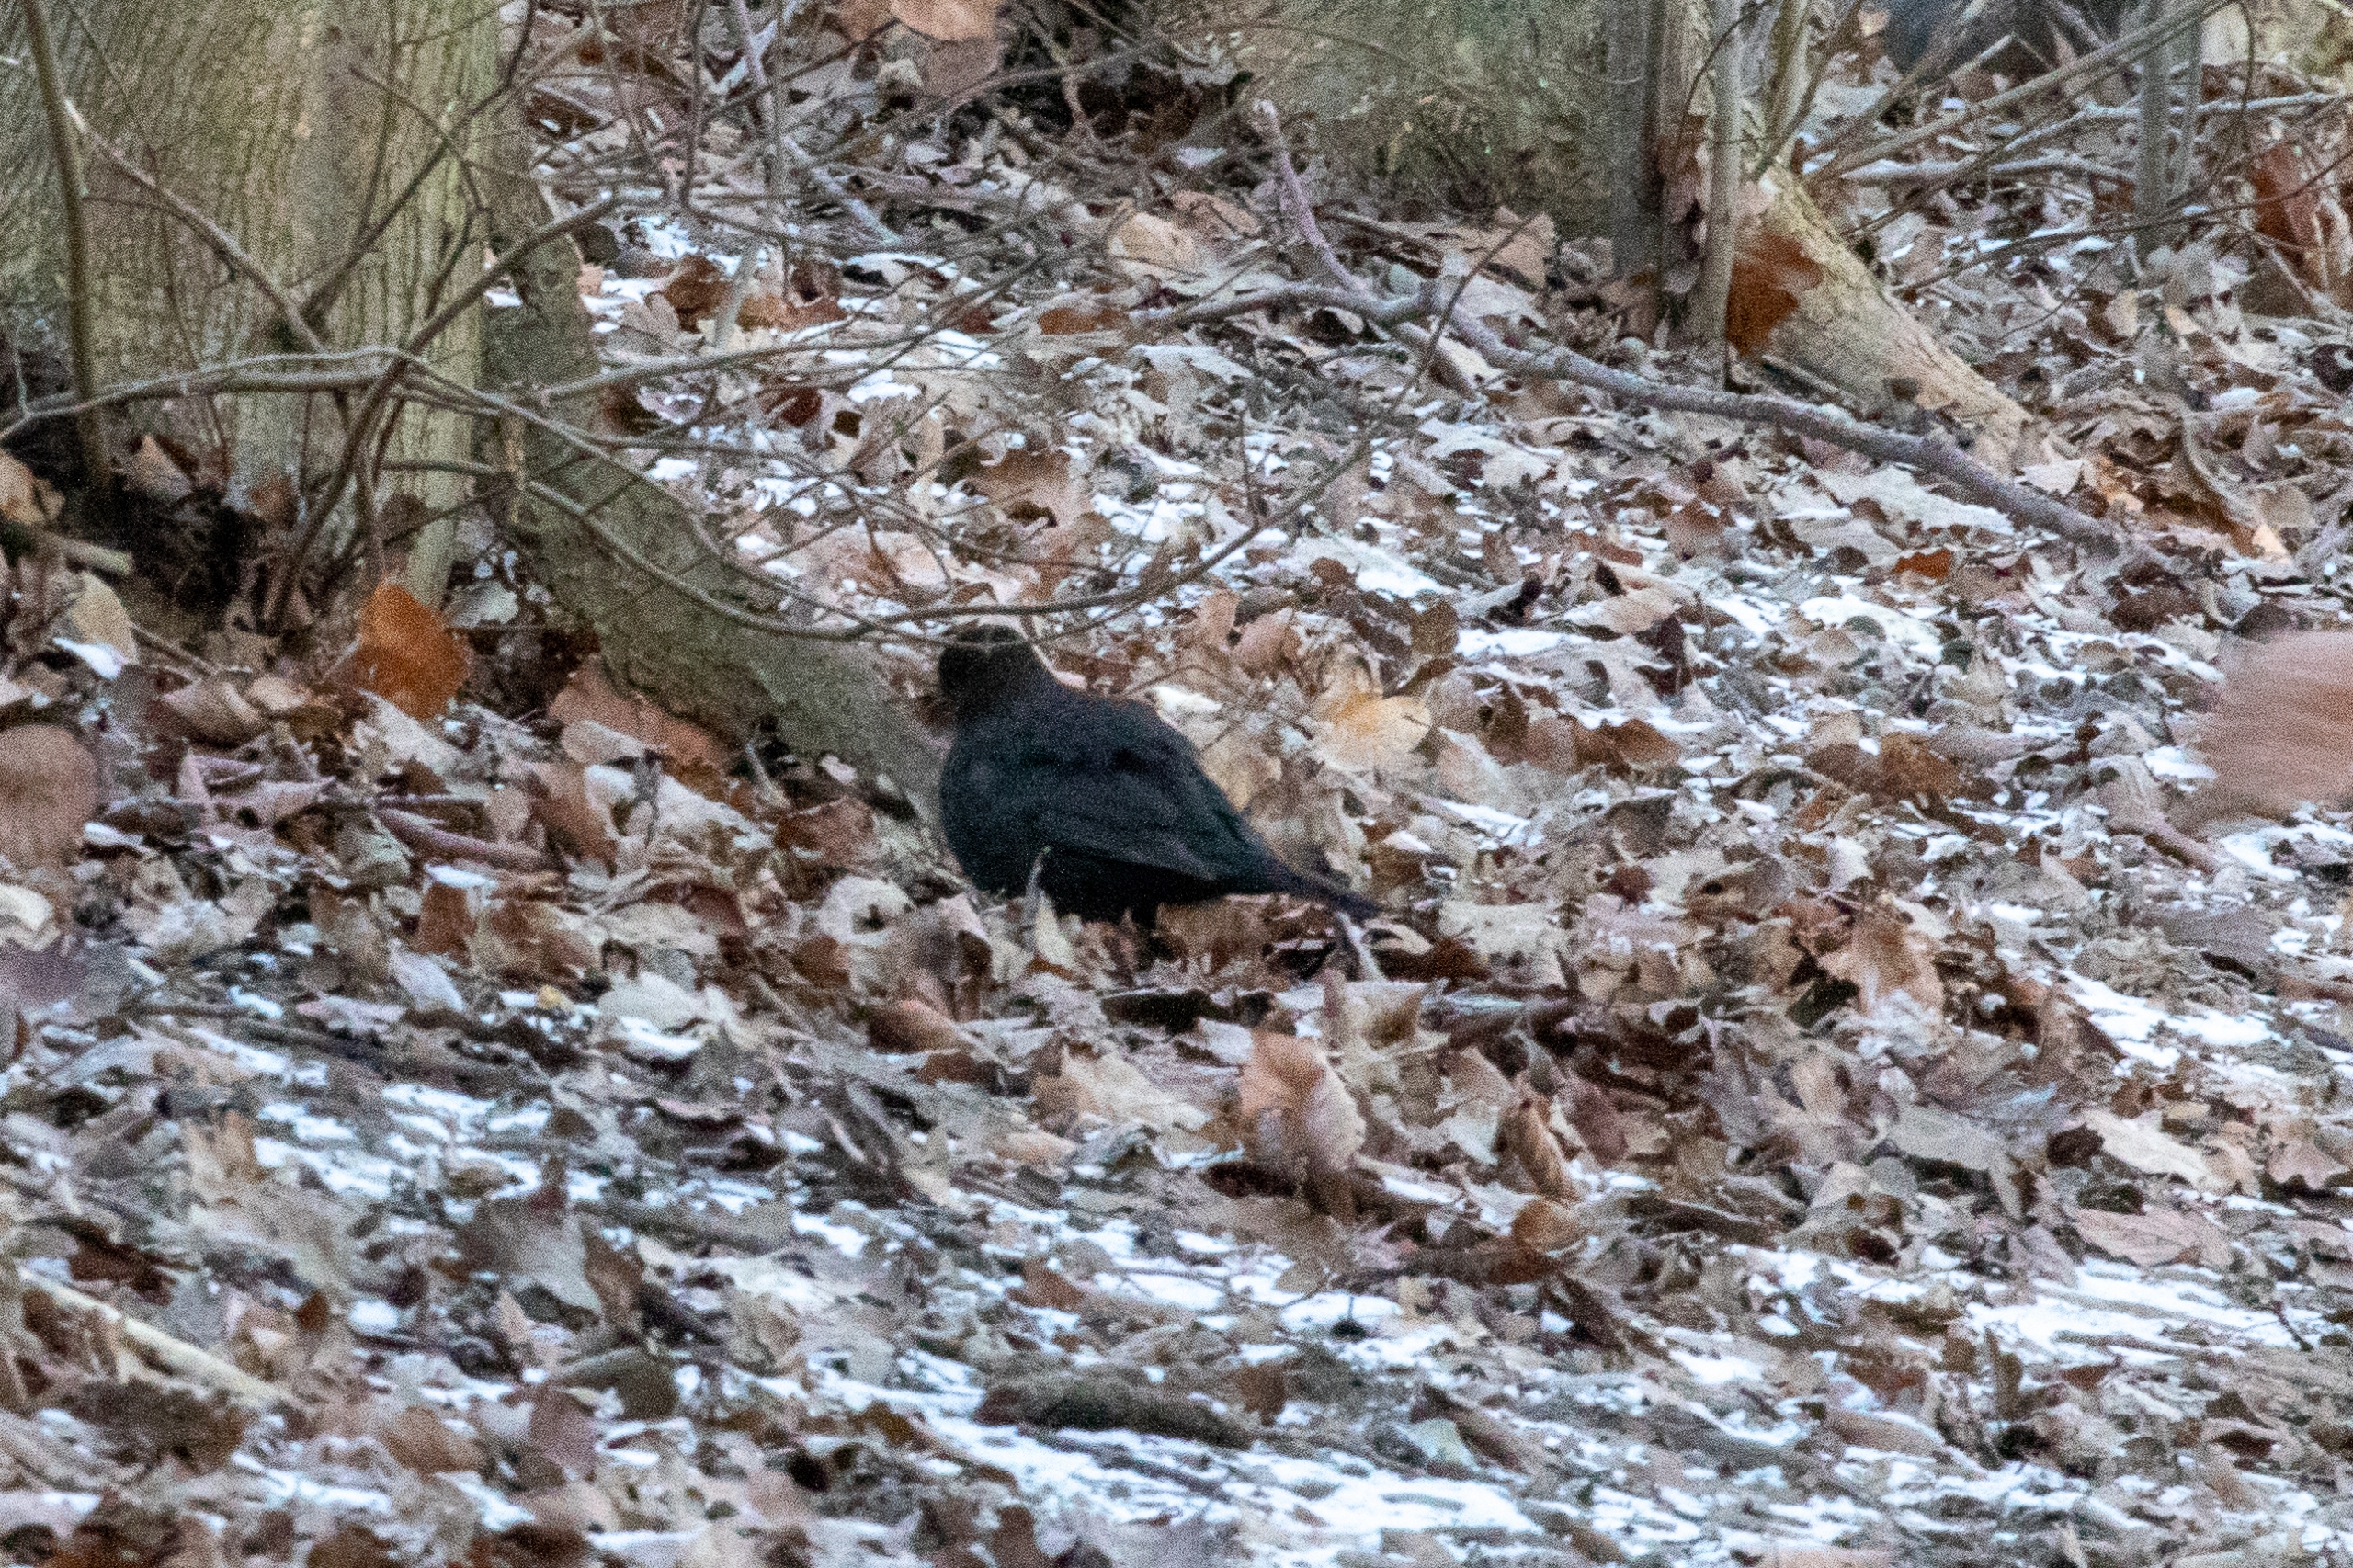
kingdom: Animalia
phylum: Chordata
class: Aves
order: Passeriformes
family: Turdidae
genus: Turdus
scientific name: Turdus merula
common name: Solsort
